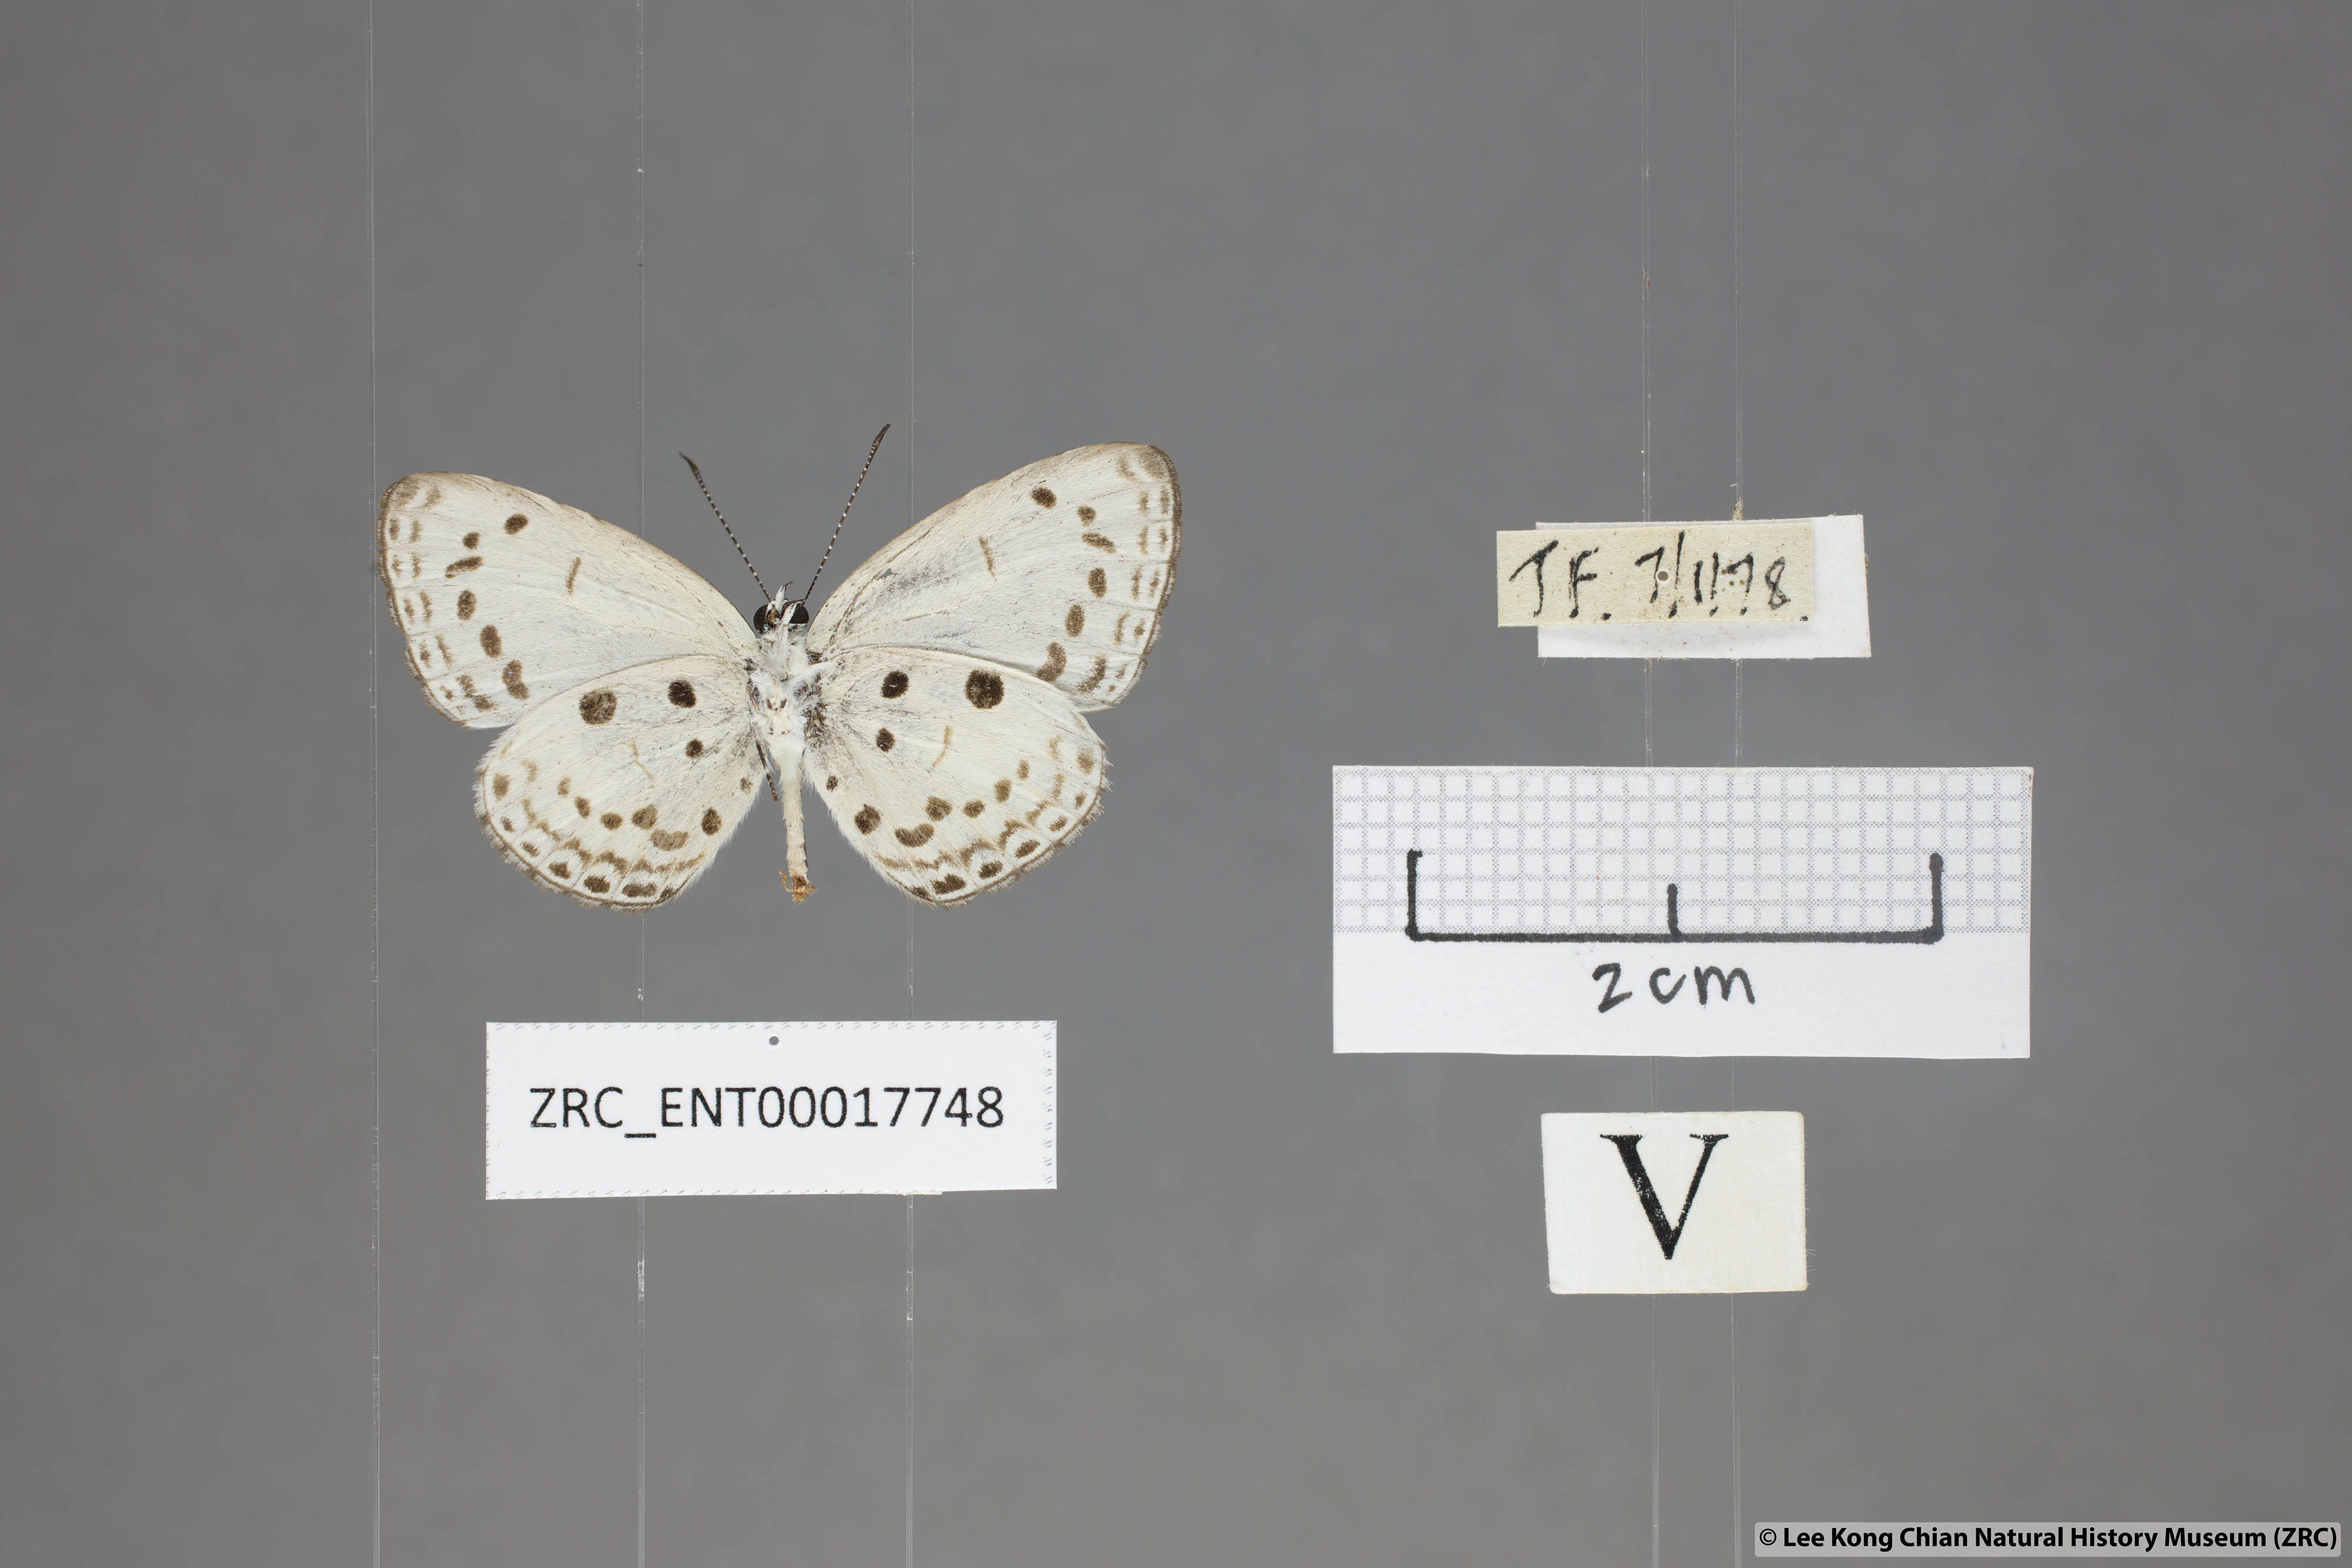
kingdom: Animalia
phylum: Arthropoda
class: Insecta
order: Lepidoptera
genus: Plautella
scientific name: Plautella
